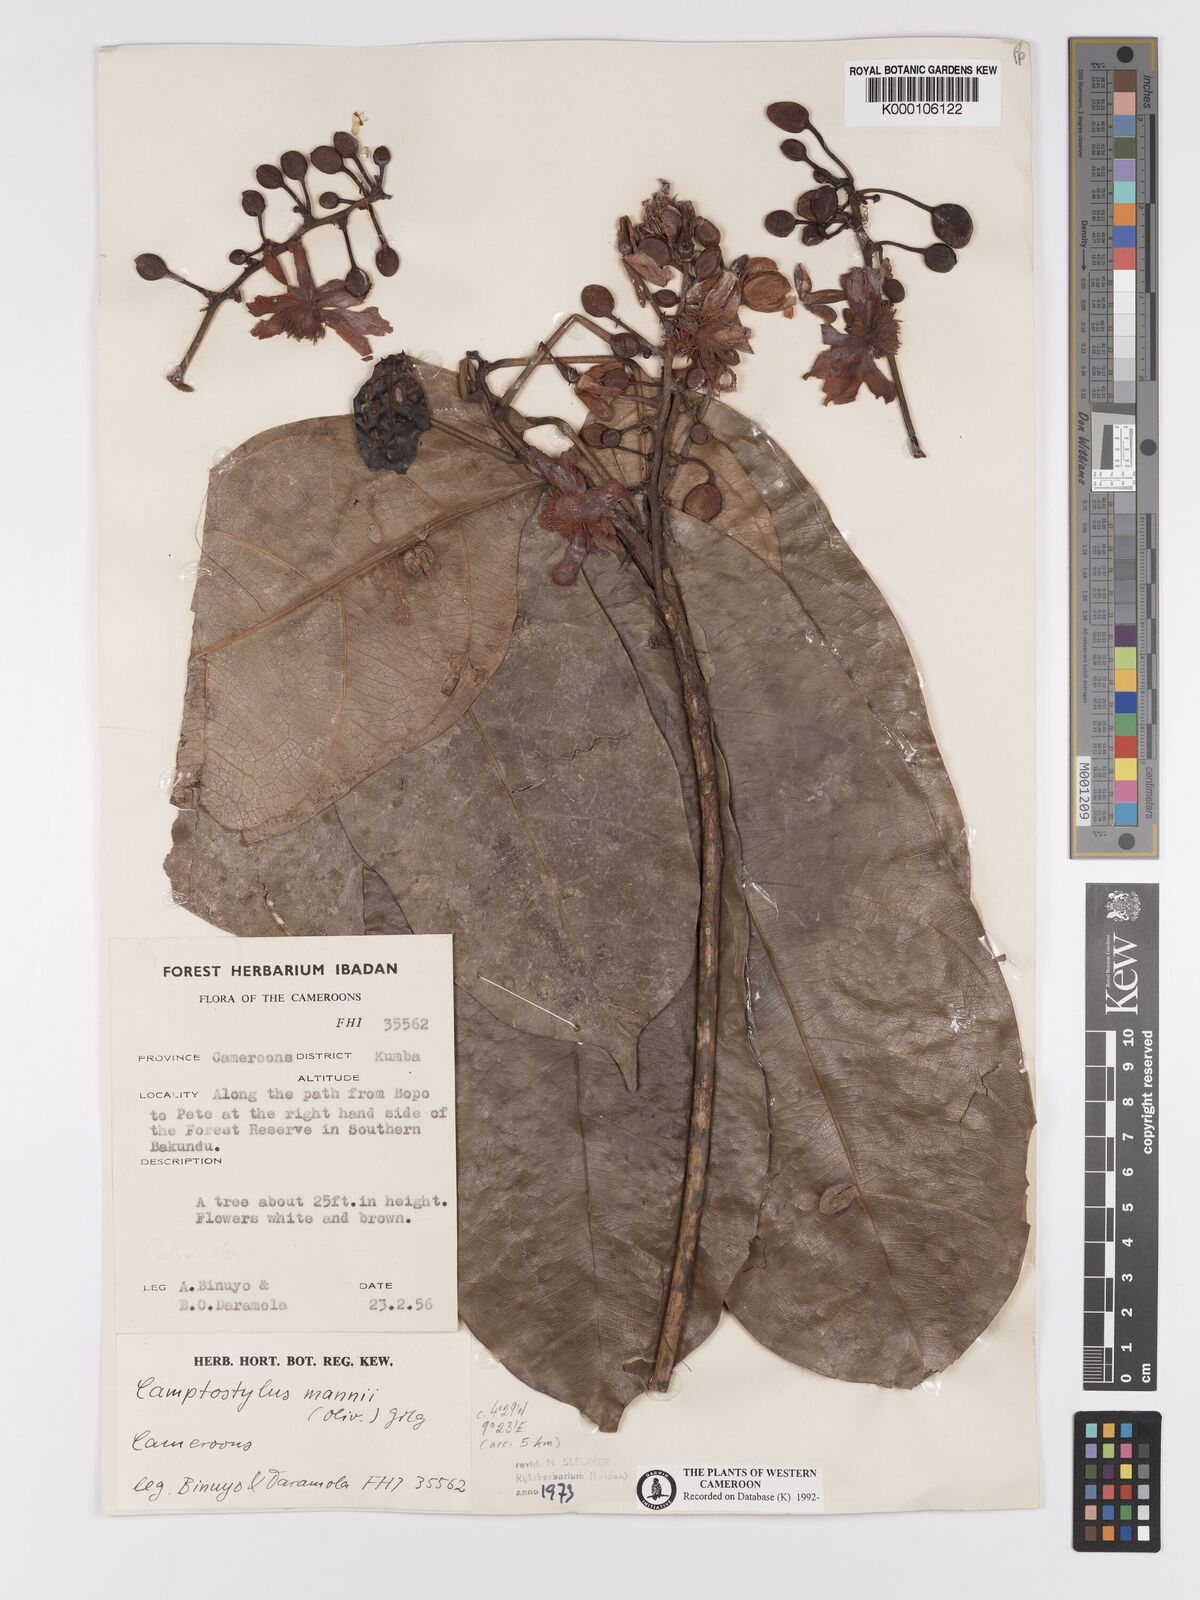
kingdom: Plantae
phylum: Tracheophyta
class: Magnoliopsida
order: Malpighiales
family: Achariaceae
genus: Camptostylus
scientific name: Camptostylus mannii
